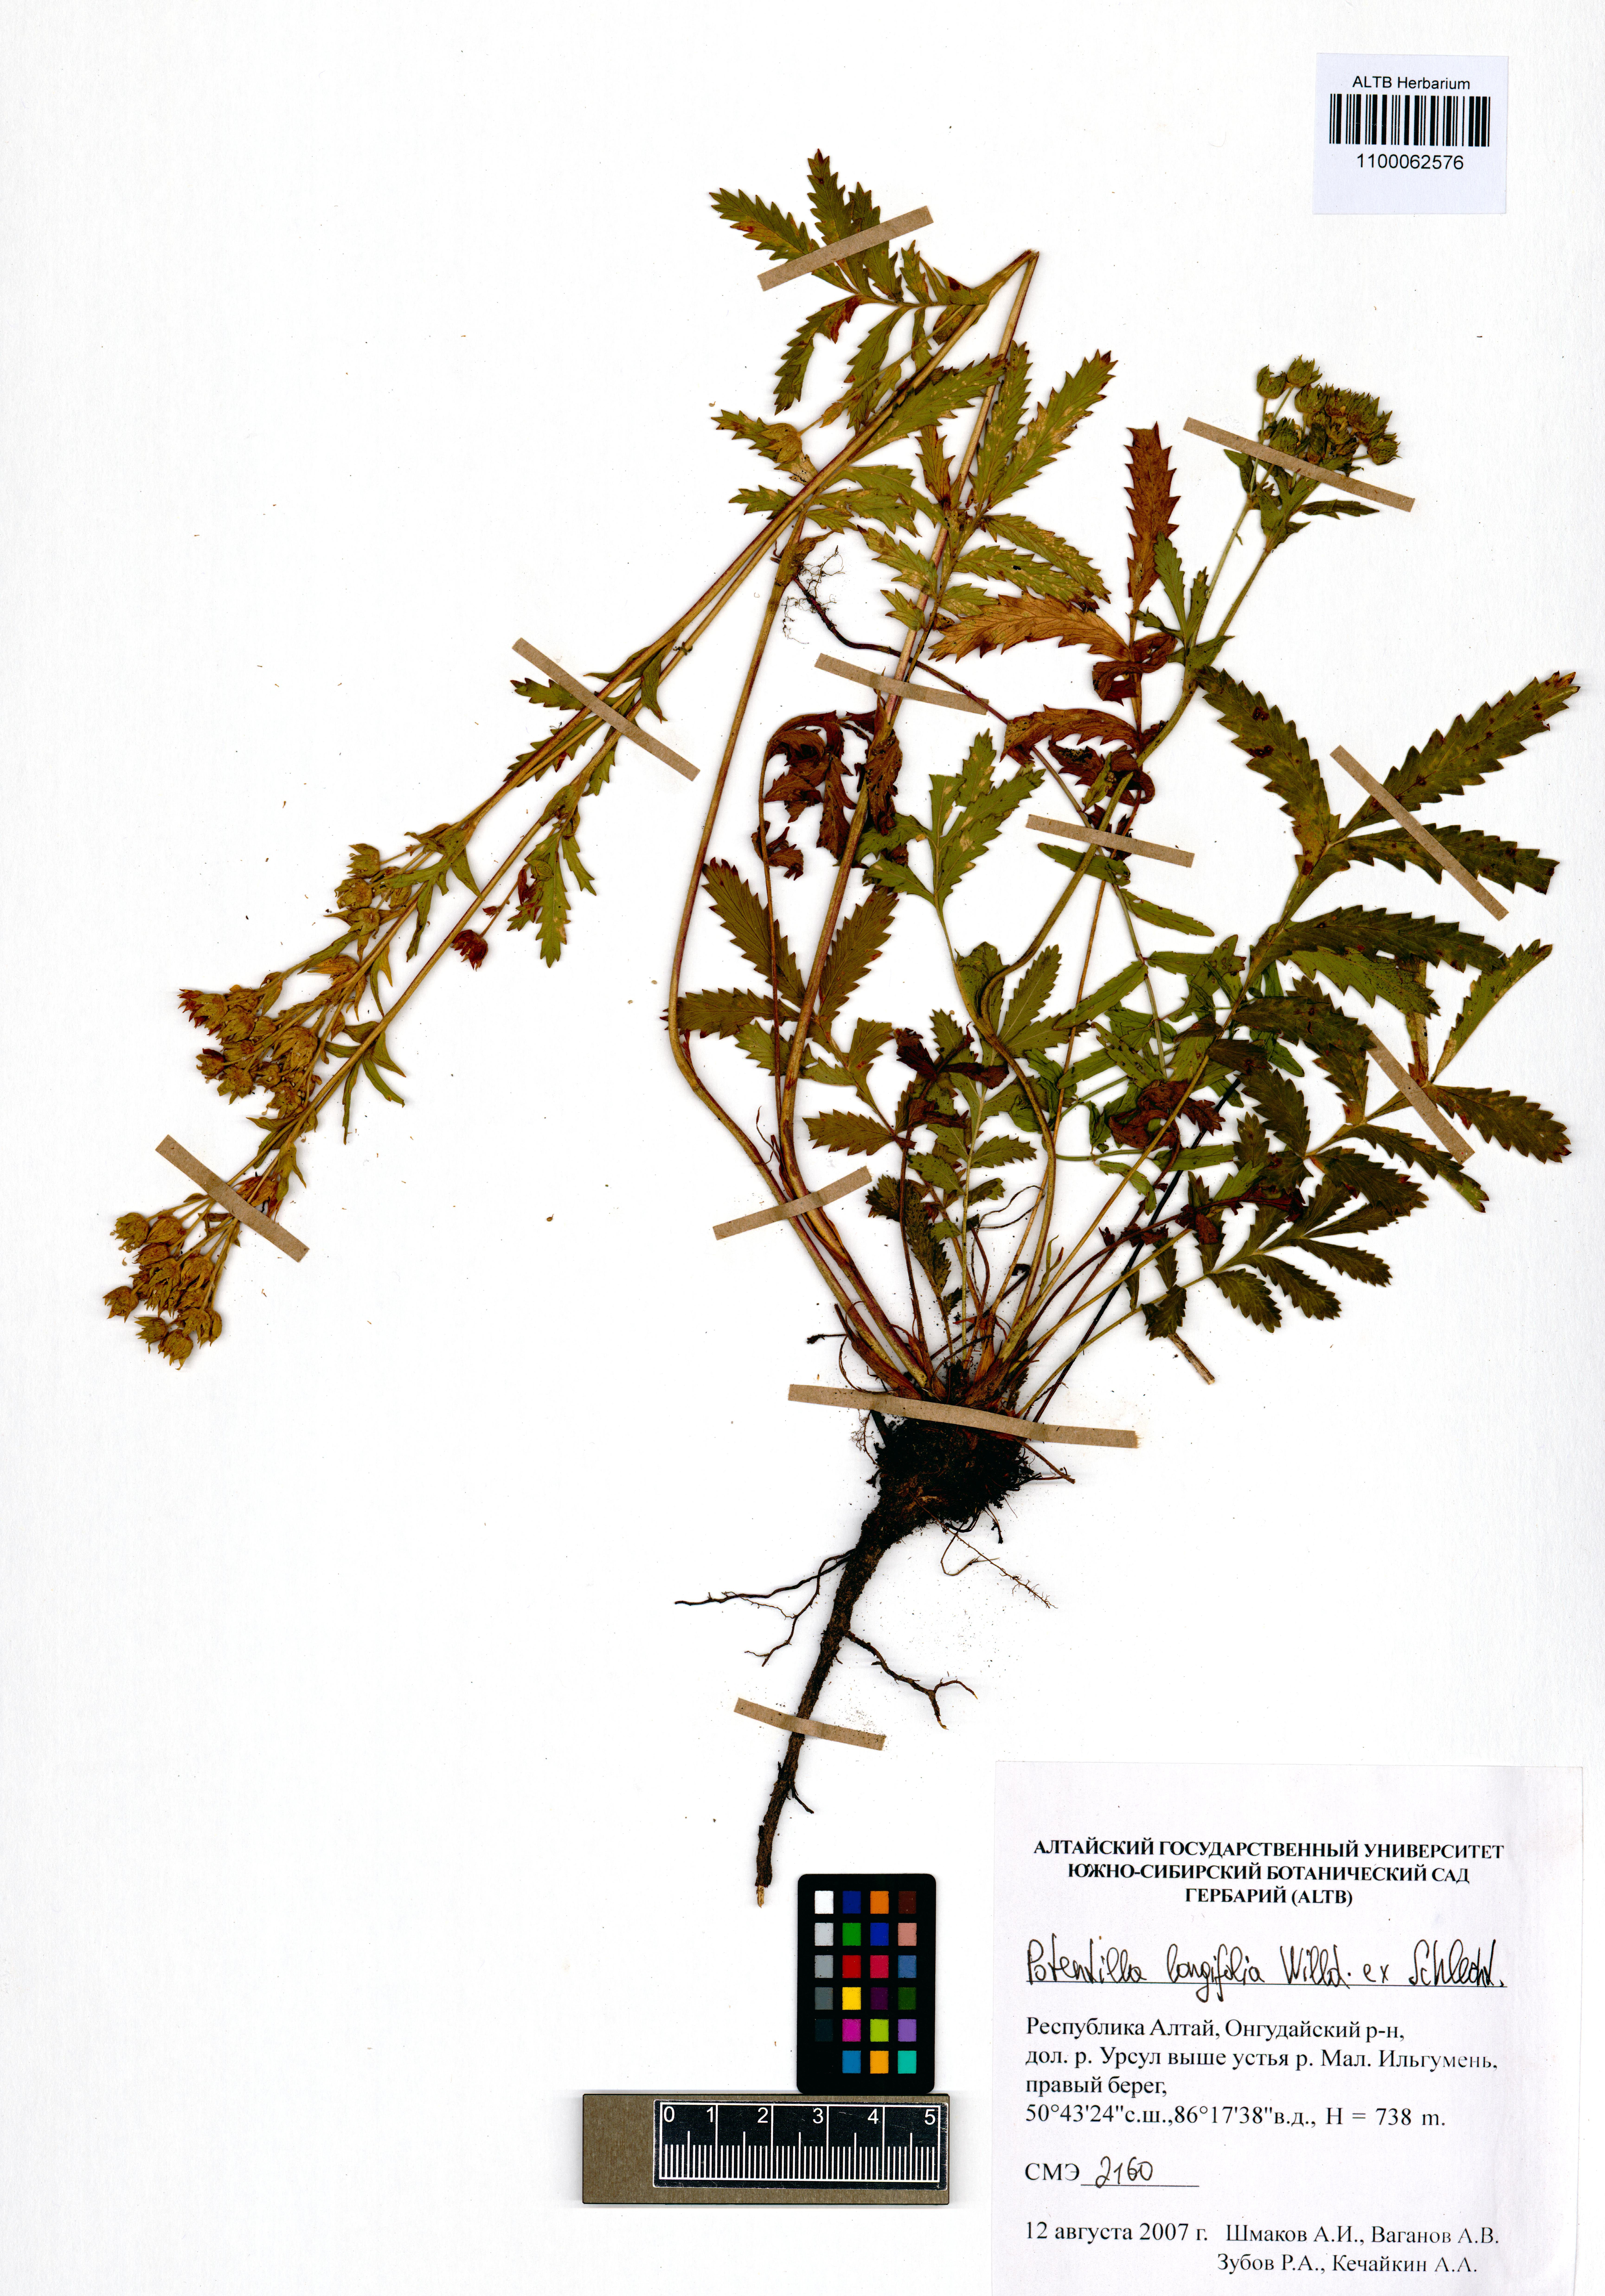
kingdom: Plantae
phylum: Tracheophyta
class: Magnoliopsida
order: Rosales
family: Rosaceae
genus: Potentilla
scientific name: Potentilla longifolia
